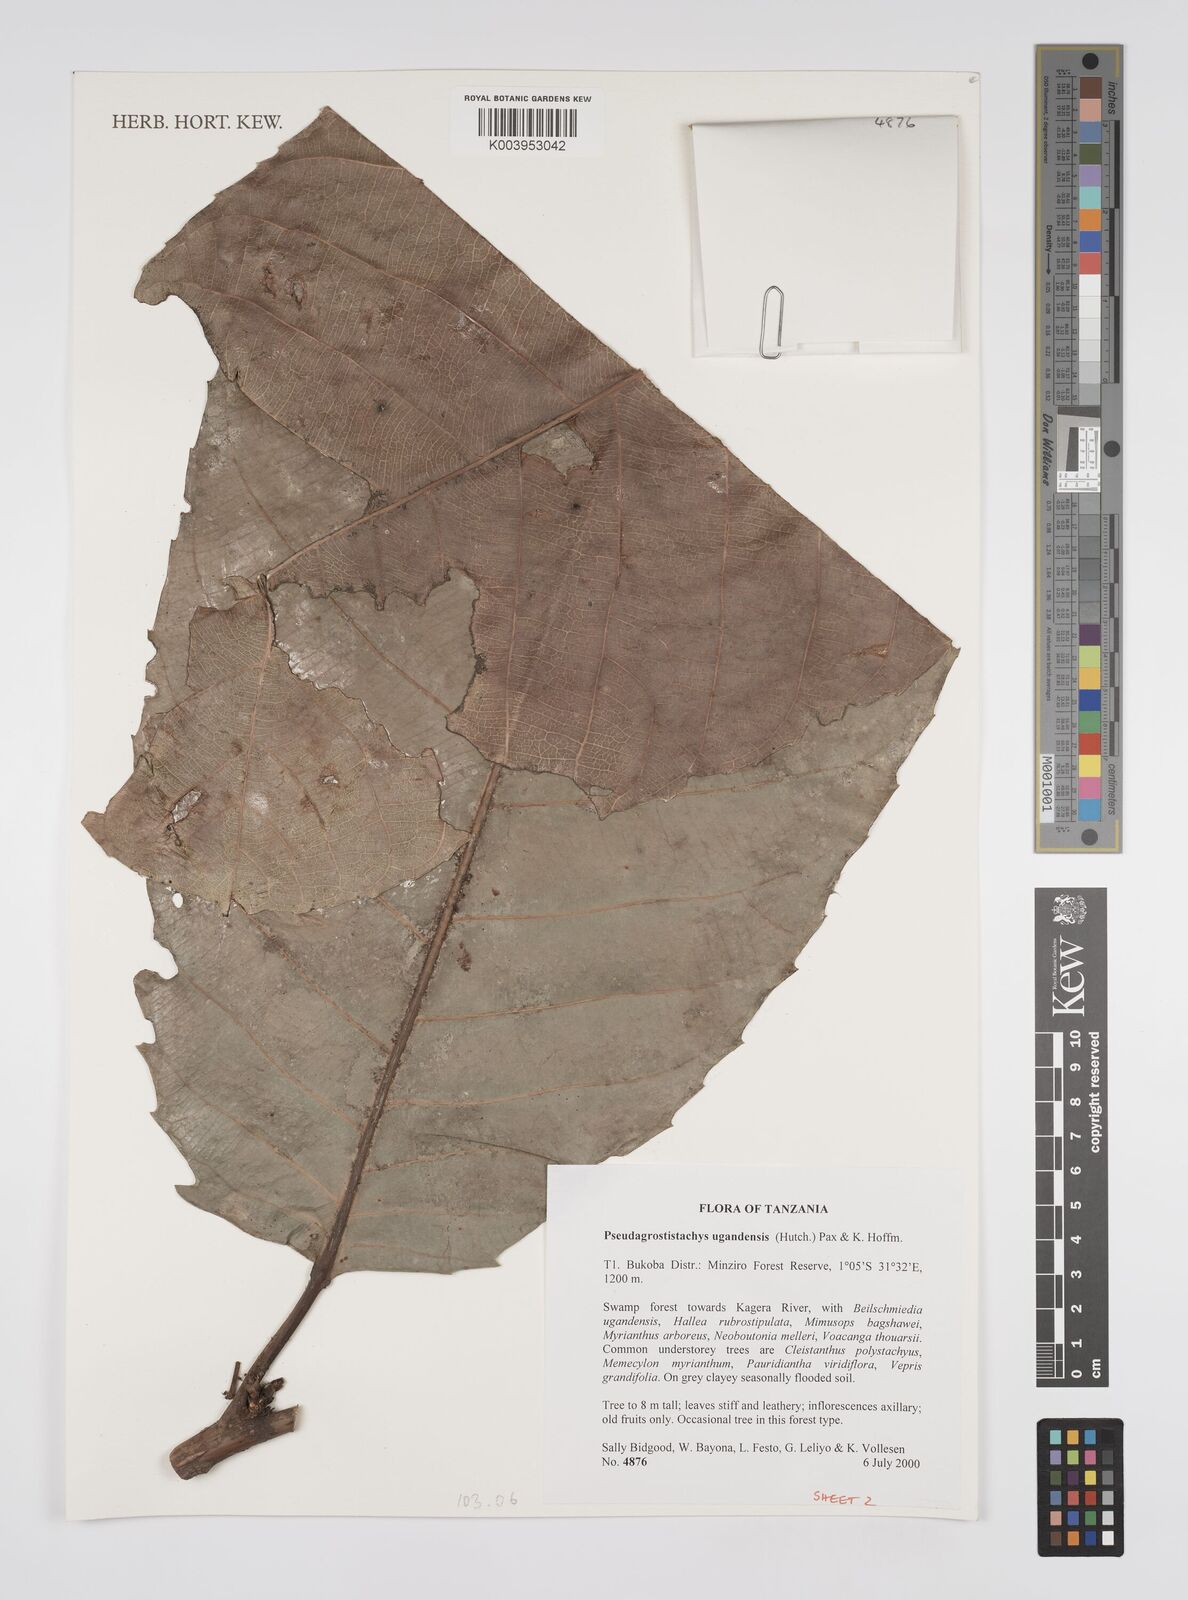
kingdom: Plantae
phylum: Tracheophyta
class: Magnoliopsida
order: Malpighiales
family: Euphorbiaceae
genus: Pseudagrostistachys
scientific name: Pseudagrostistachys ugandensis
